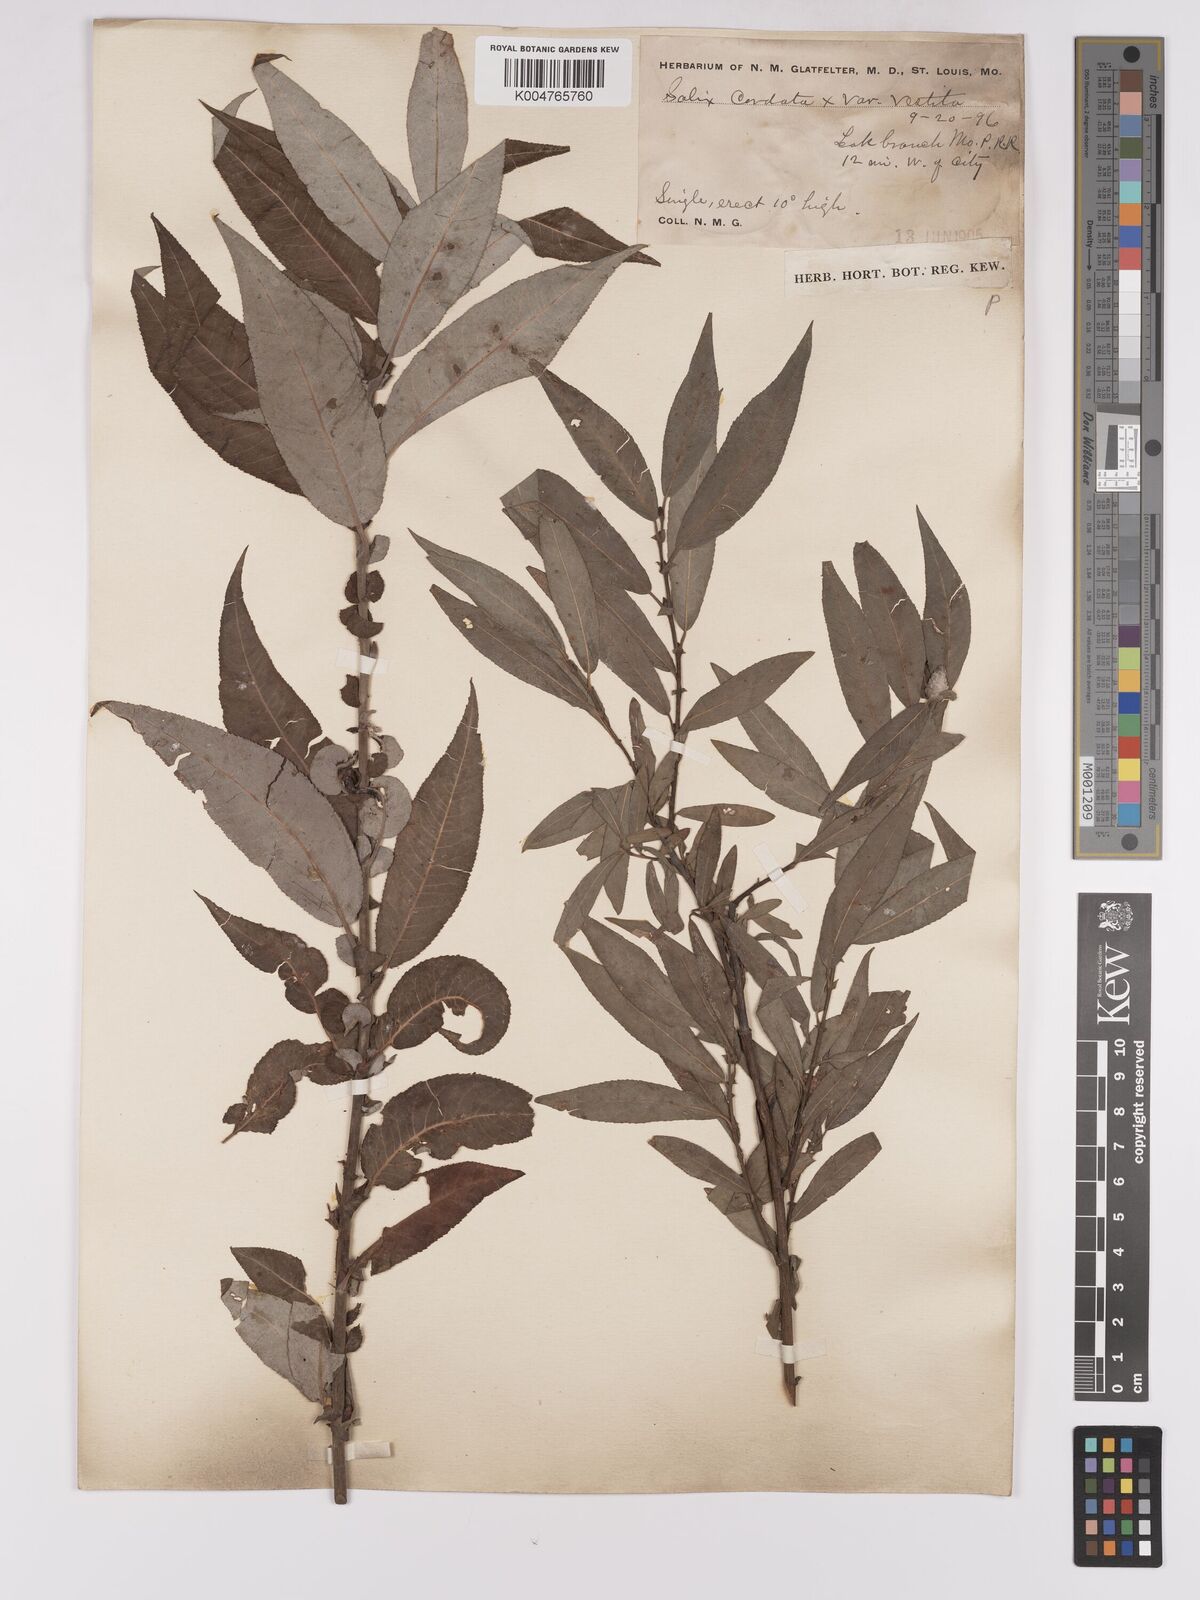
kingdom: Plantae
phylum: Tracheophyta
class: Magnoliopsida
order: Malpighiales
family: Salicaceae
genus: Salix
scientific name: Salix cordata
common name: Heart-leaf willow
